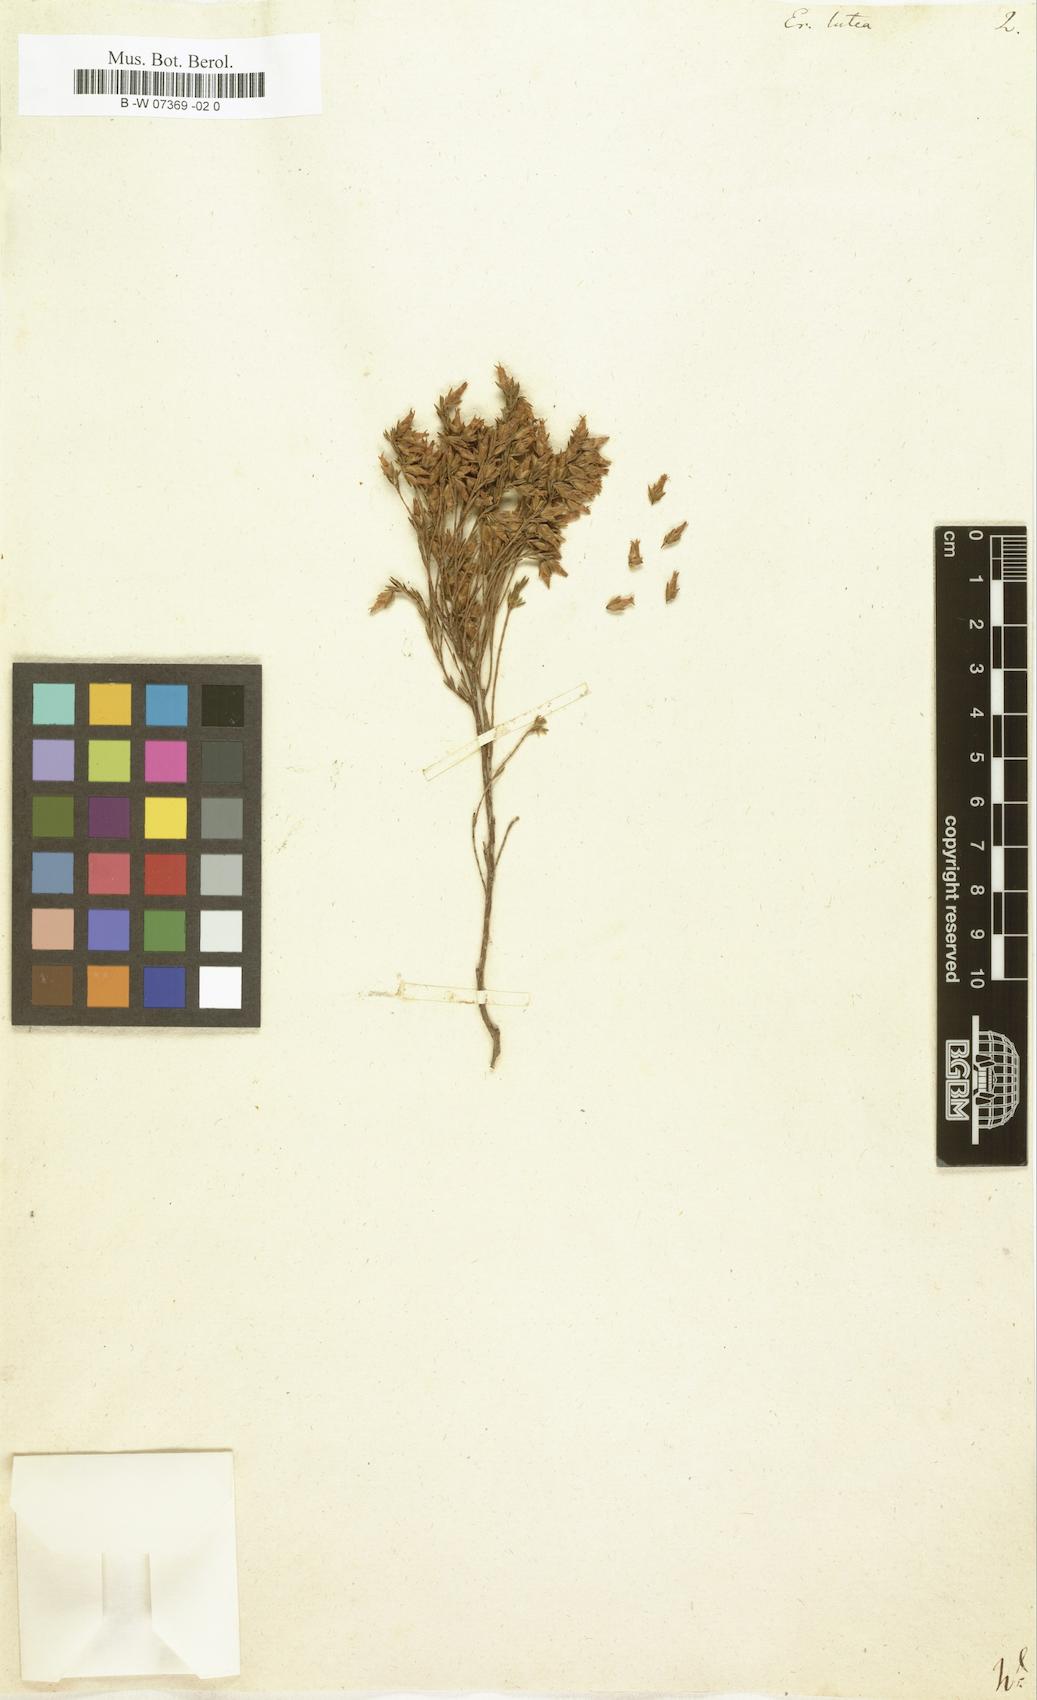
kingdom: Plantae
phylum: Tracheophyta
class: Magnoliopsida
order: Ericales
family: Ericaceae
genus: Erica
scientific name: Erica lutea
